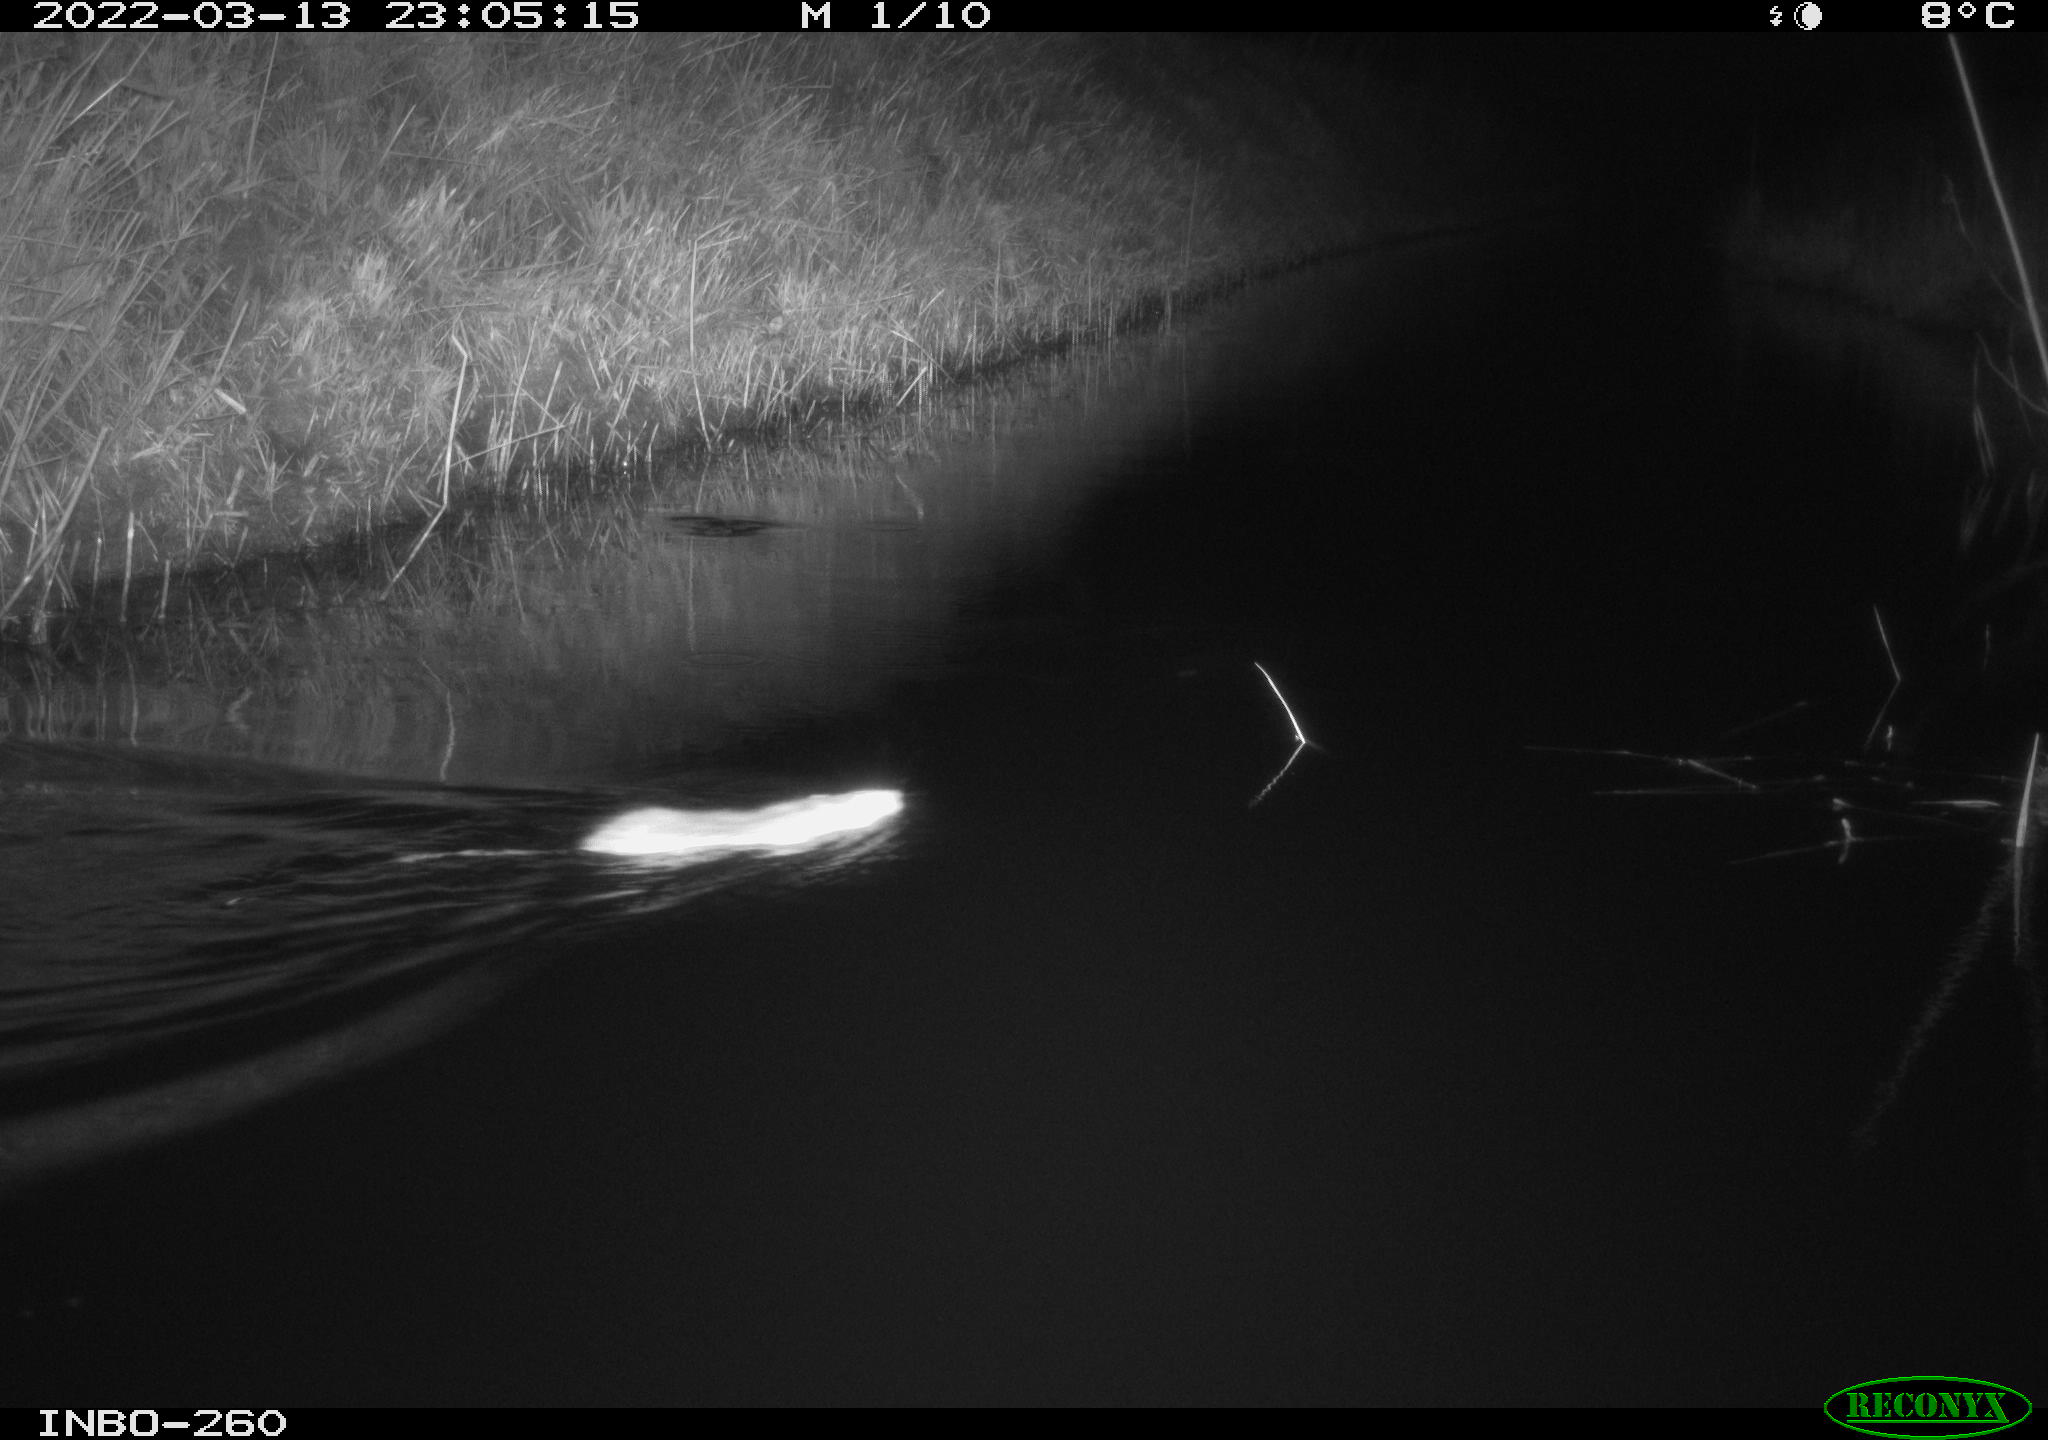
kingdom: Animalia
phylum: Chordata
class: Mammalia
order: Rodentia
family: Muridae
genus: Rattus
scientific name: Rattus norvegicus
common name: Brown rat
